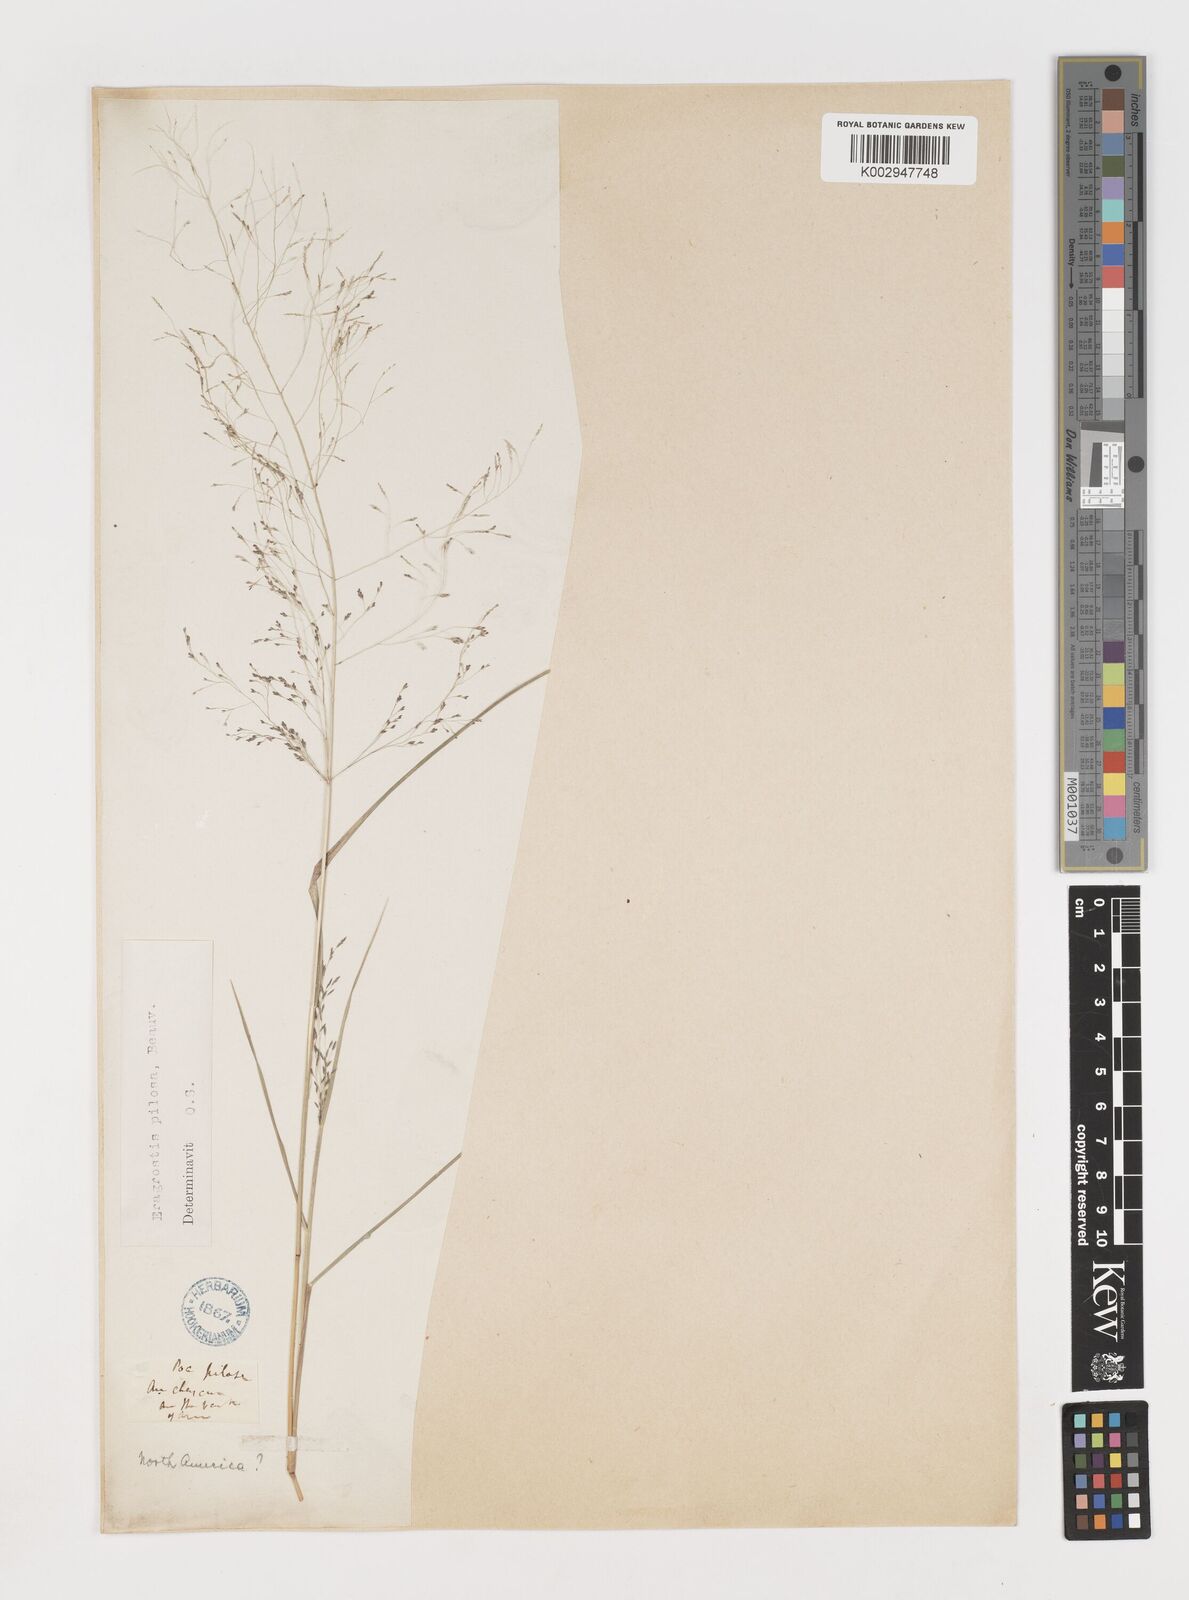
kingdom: Plantae
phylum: Tracheophyta
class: Liliopsida
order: Poales
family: Poaceae
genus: Eragrostis
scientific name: Eragrostis pilosa
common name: Indian lovegrass
